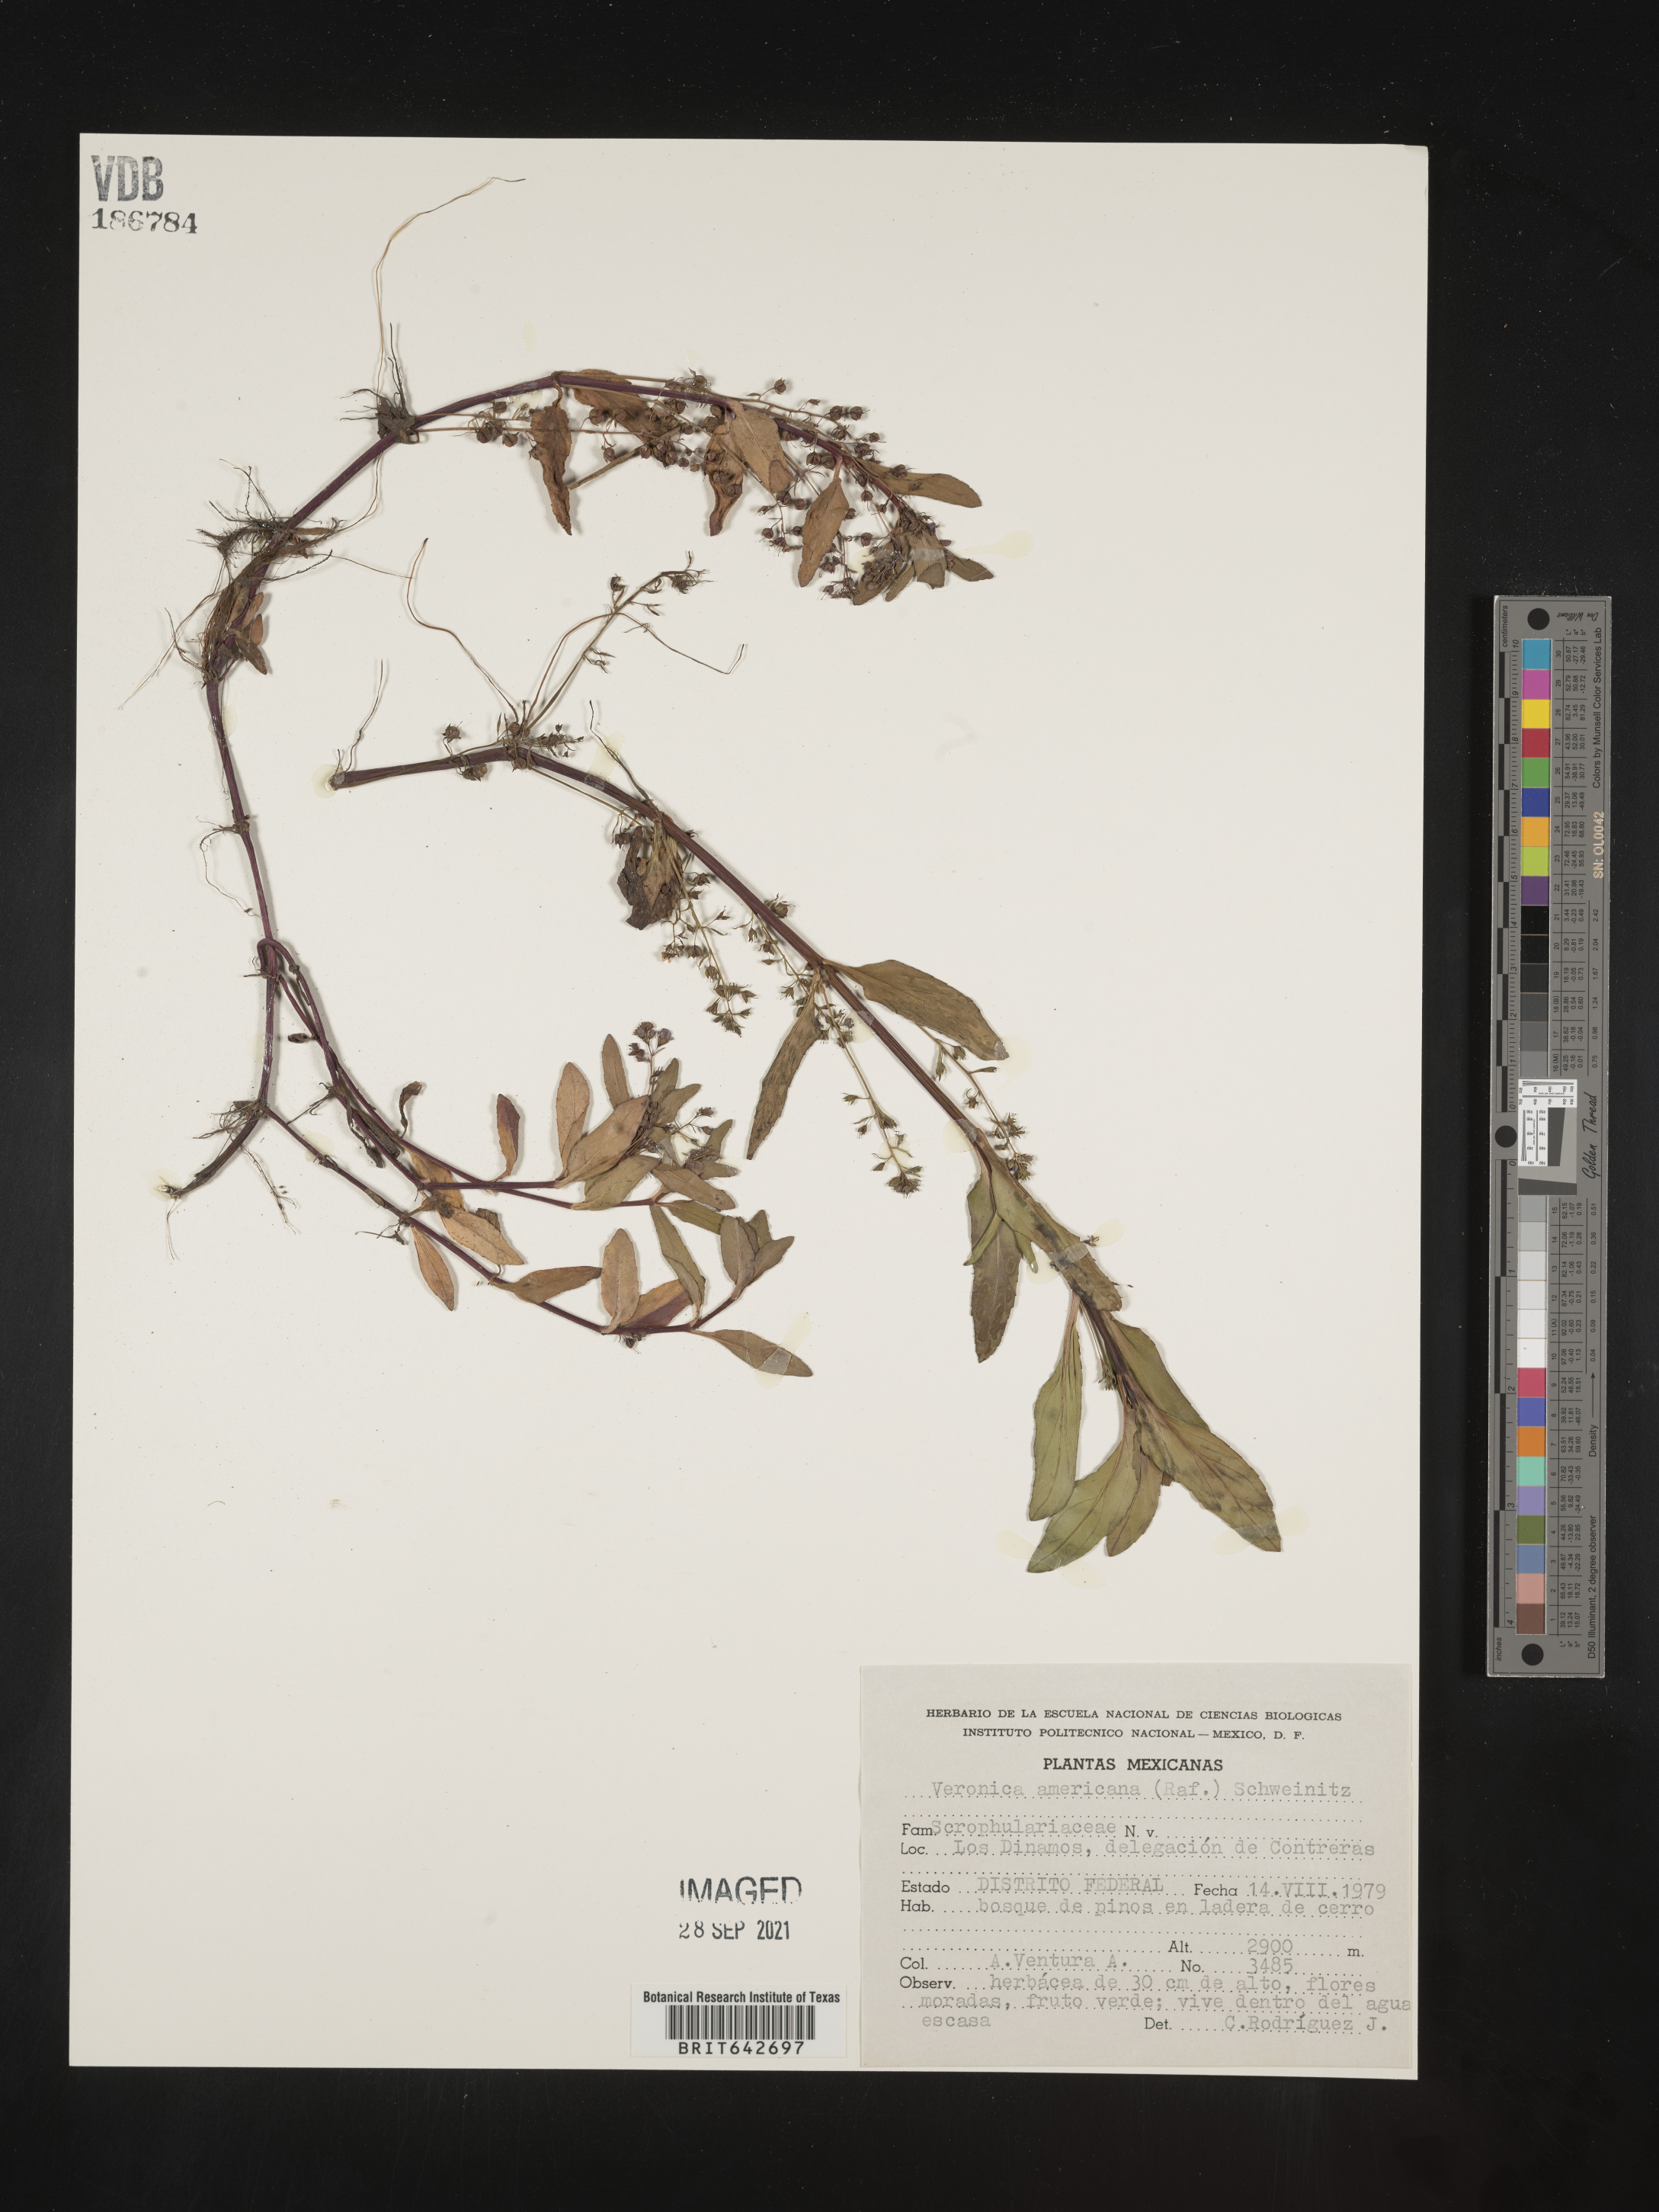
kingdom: Plantae
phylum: Tracheophyta
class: Magnoliopsida
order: Lamiales
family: Plantaginaceae
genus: Veronica
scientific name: Veronica
